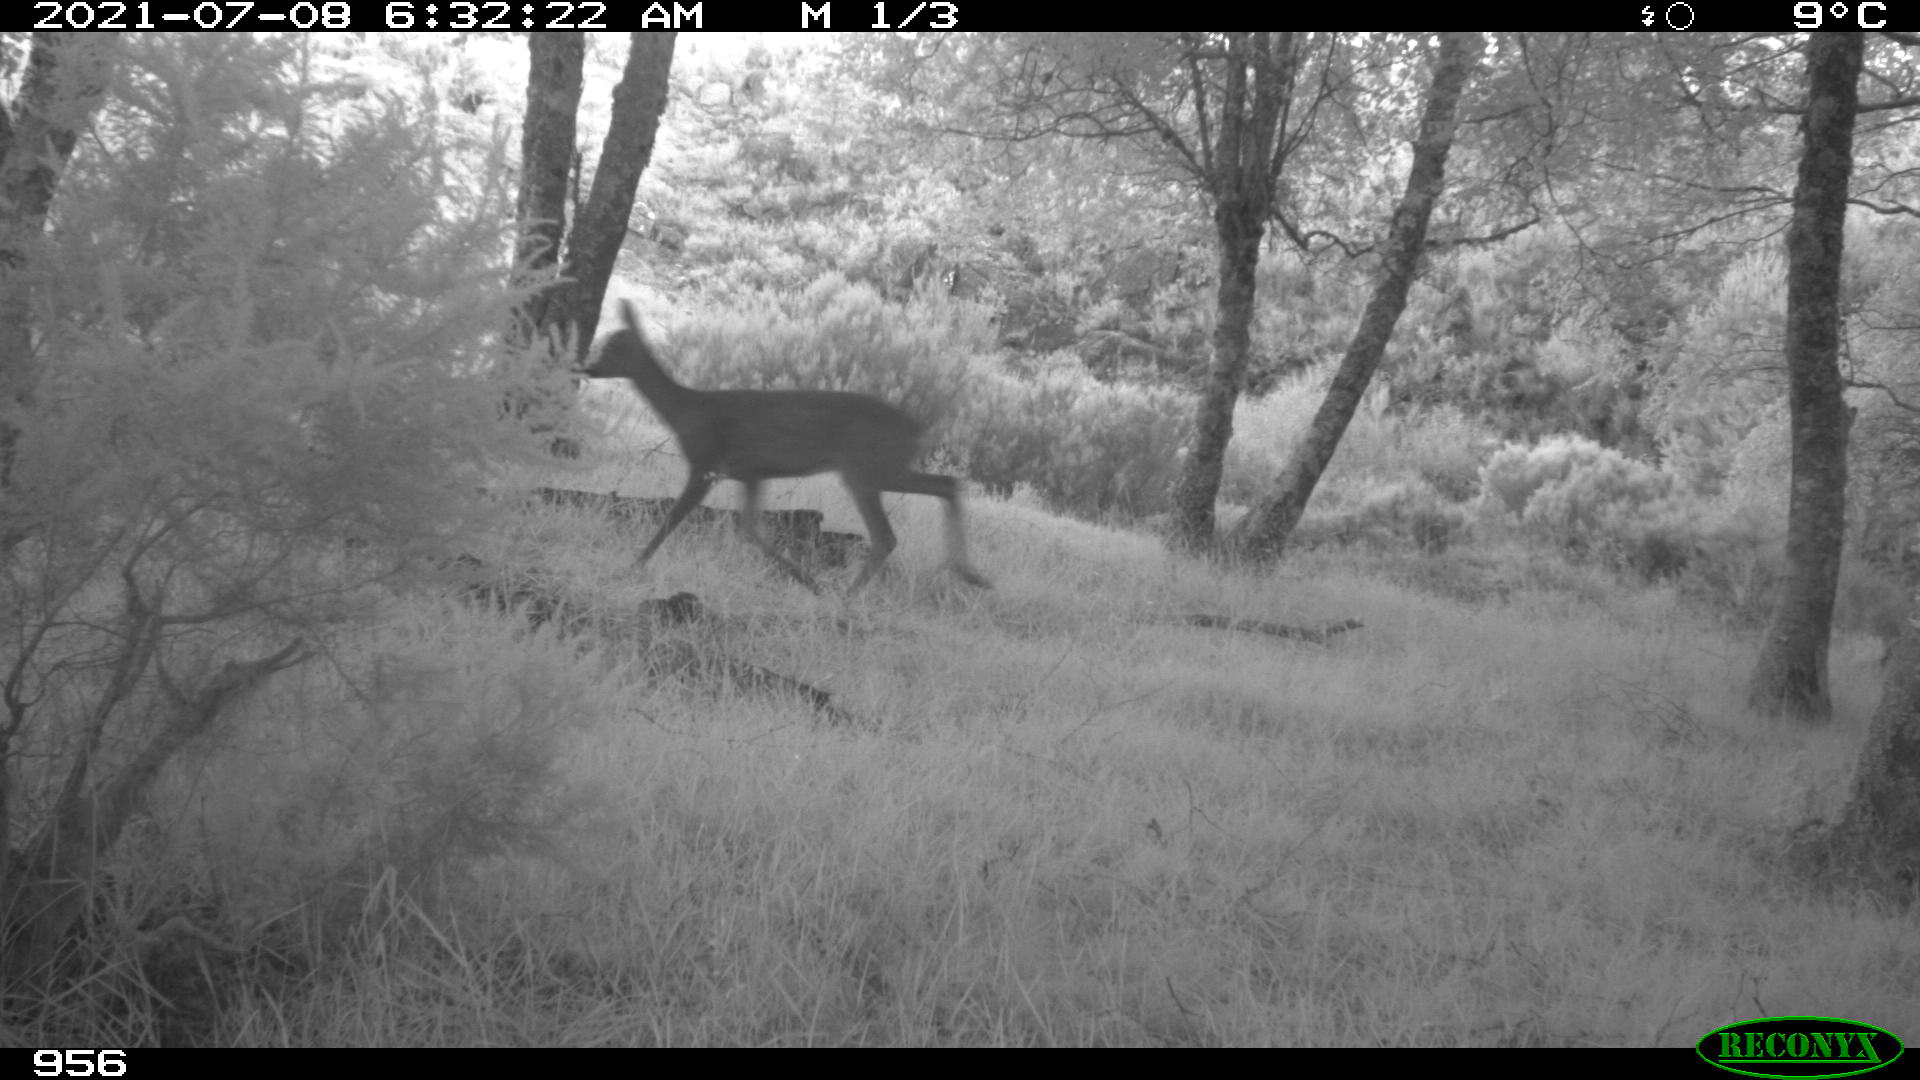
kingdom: Animalia
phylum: Chordata
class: Mammalia
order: Artiodactyla
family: Cervidae
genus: Capreolus
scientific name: Capreolus capreolus
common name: Western roe deer
